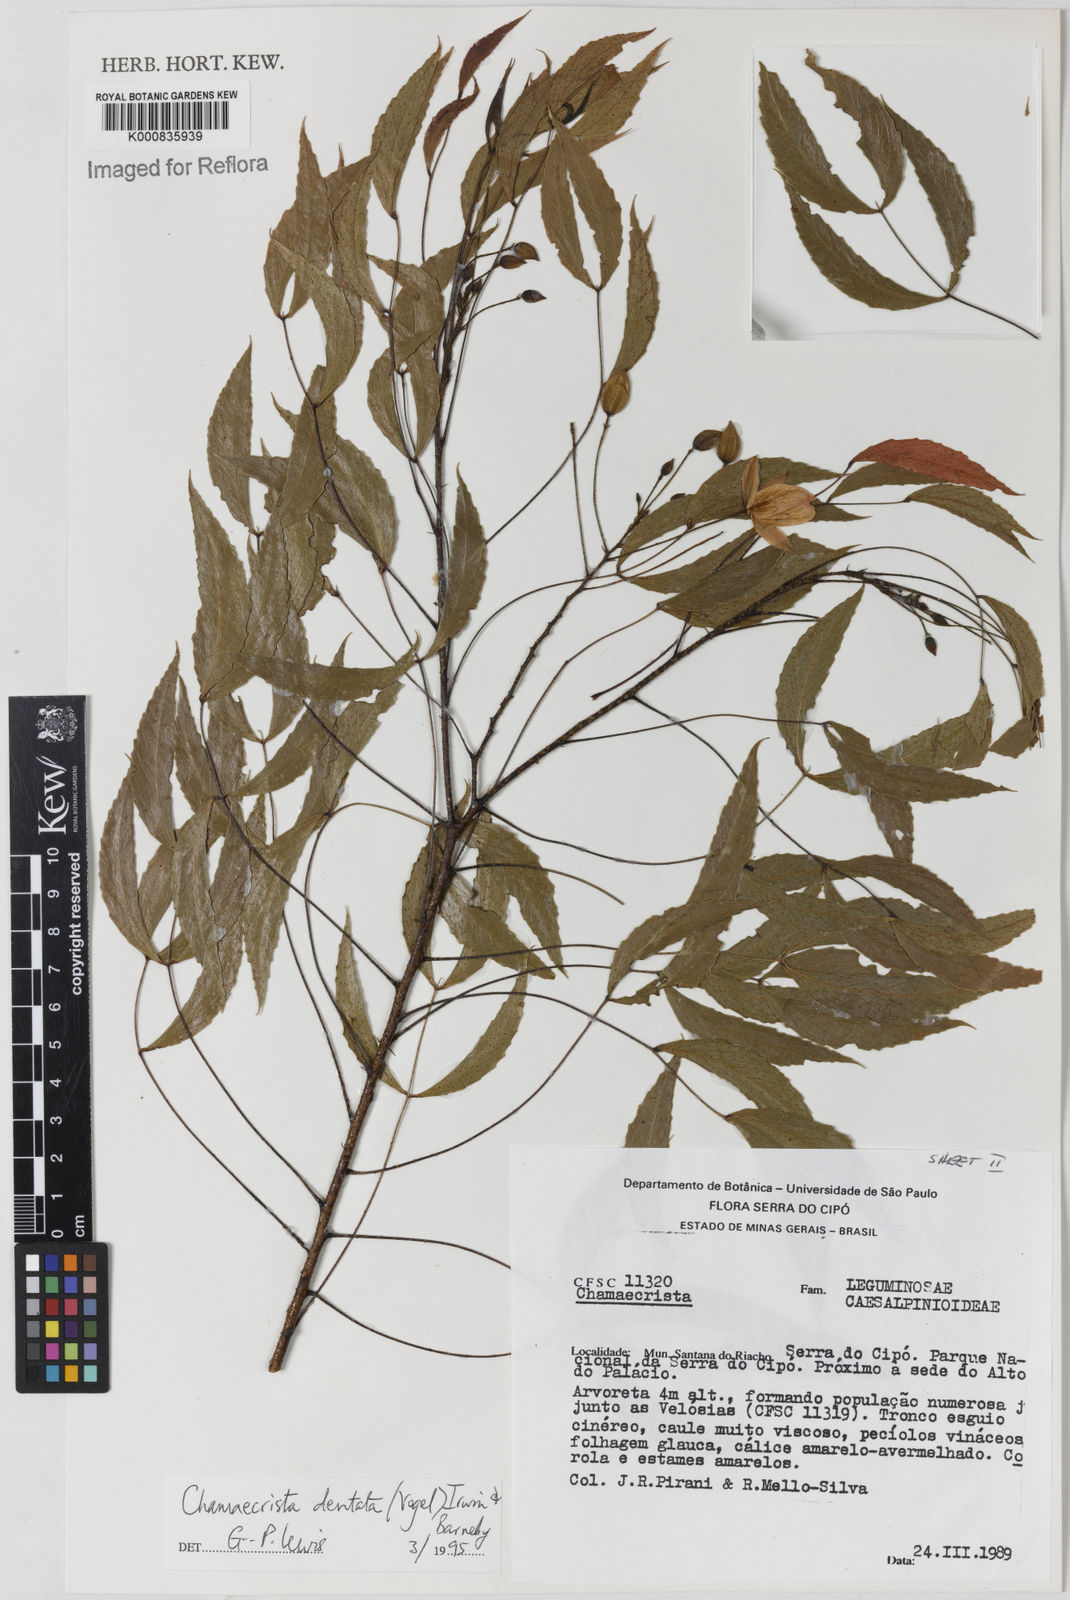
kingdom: Plantae
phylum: Tracheophyta
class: Magnoliopsida
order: Fabales
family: Fabaceae
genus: Chamaecrista
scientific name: Chamaecrista dentata
